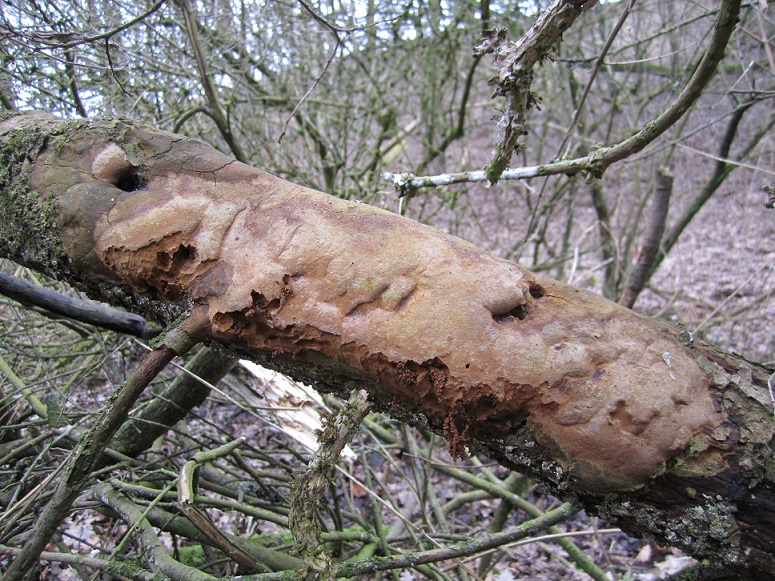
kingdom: Fungi
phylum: Basidiomycota
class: Agaricomycetes
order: Hymenochaetales
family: Hymenochaetaceae
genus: Fomitiporia
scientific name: Fomitiporia punctata
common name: pude-ildporesvamp
